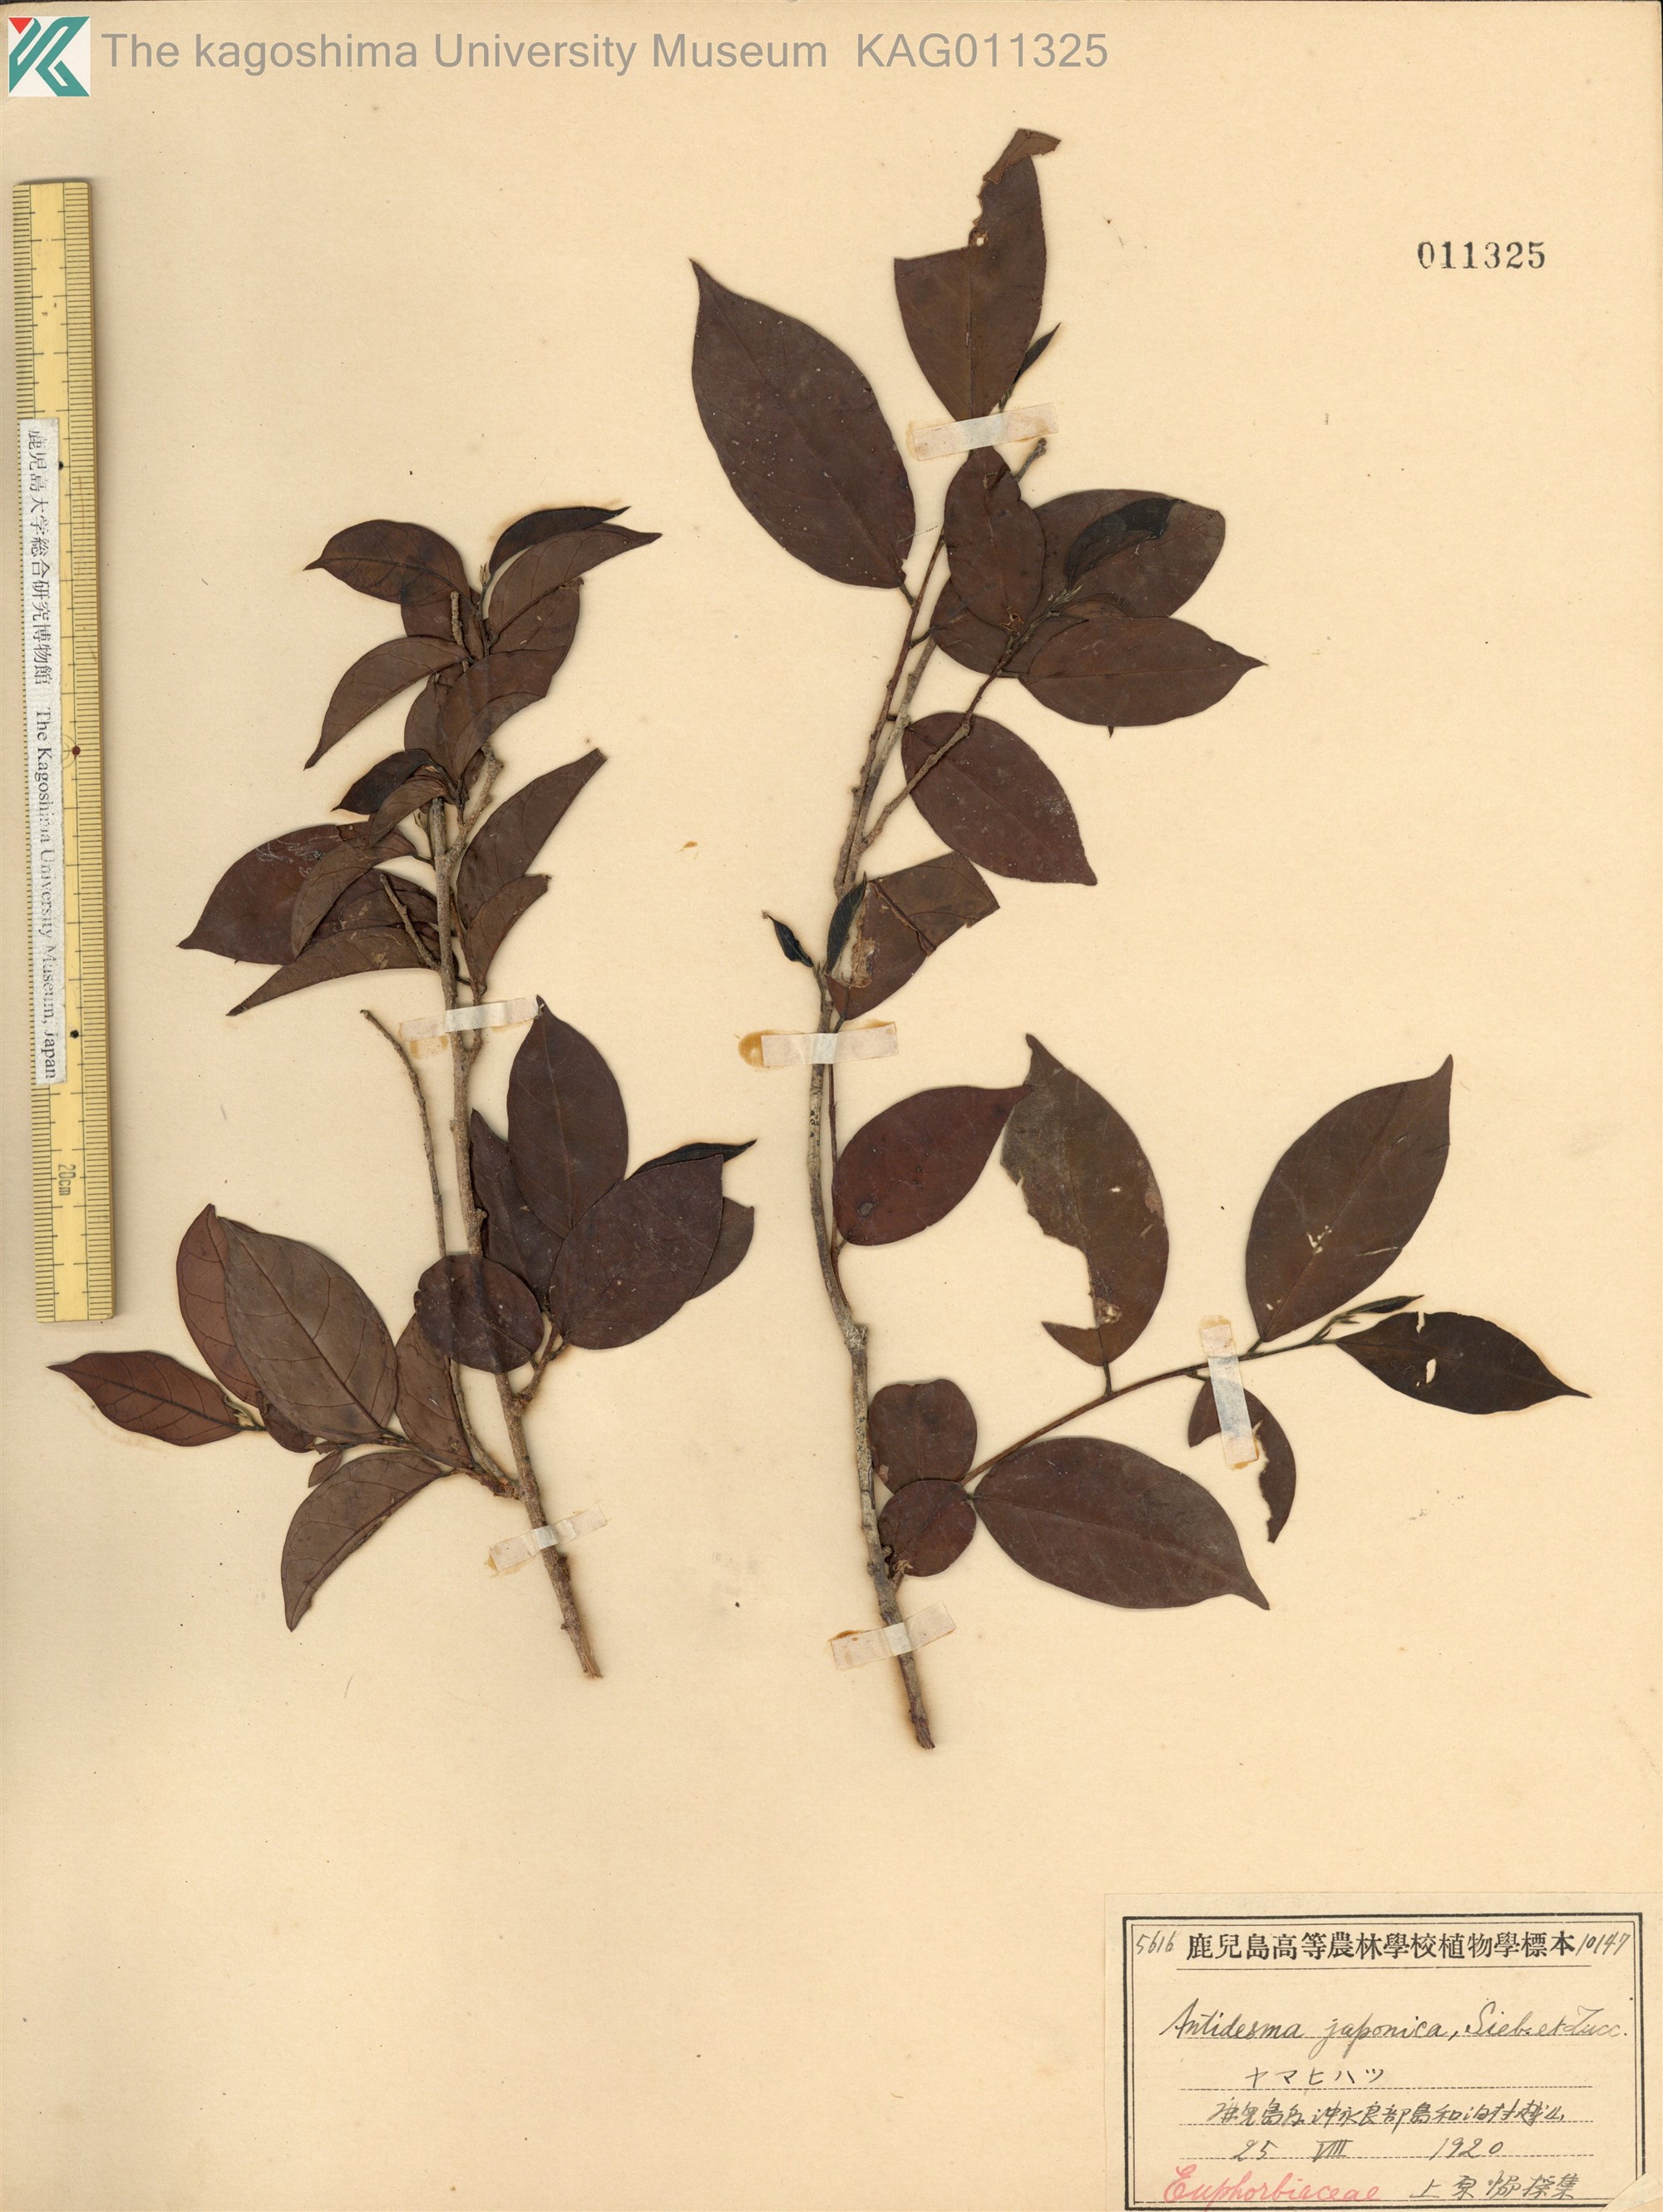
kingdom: Plantae
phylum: Tracheophyta
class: Magnoliopsida
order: Malpighiales
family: Phyllanthaceae
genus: Antidesma
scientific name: Antidesma japonicum
